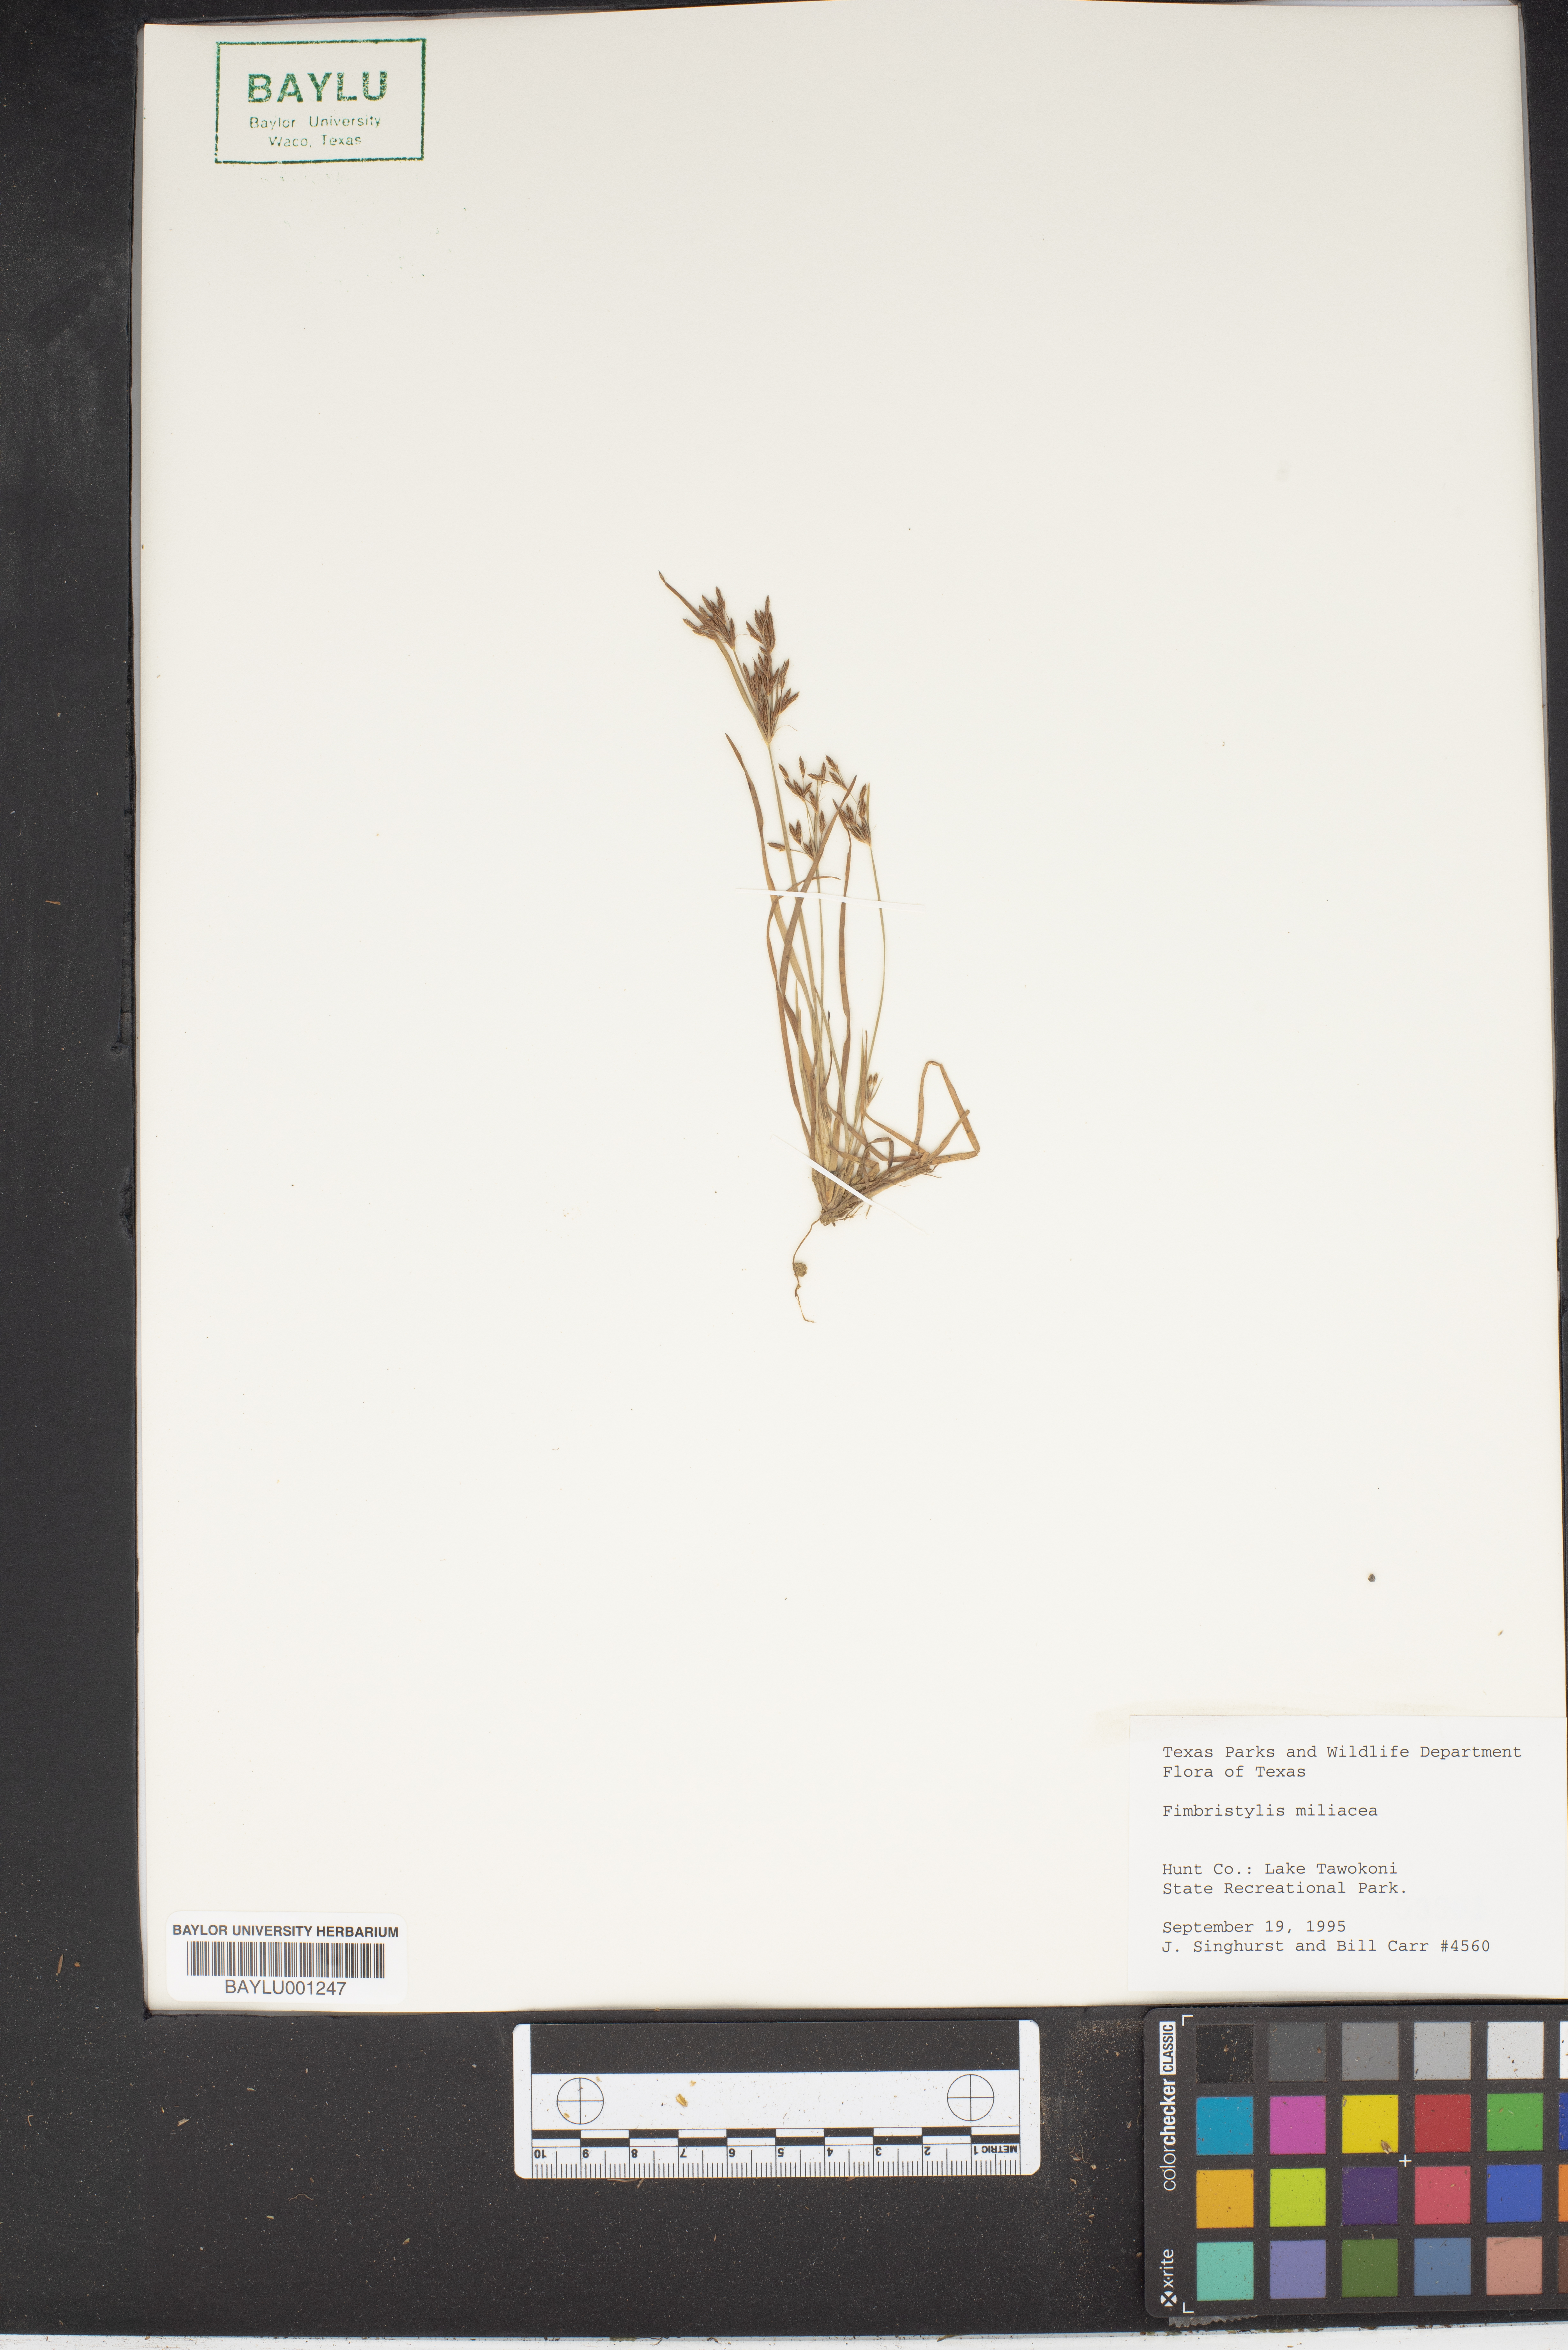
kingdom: Plantae
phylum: Tracheophyta
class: Liliopsida
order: Poales
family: Cyperaceae
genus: Fimbristylis
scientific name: Fimbristylis quinquangularis
